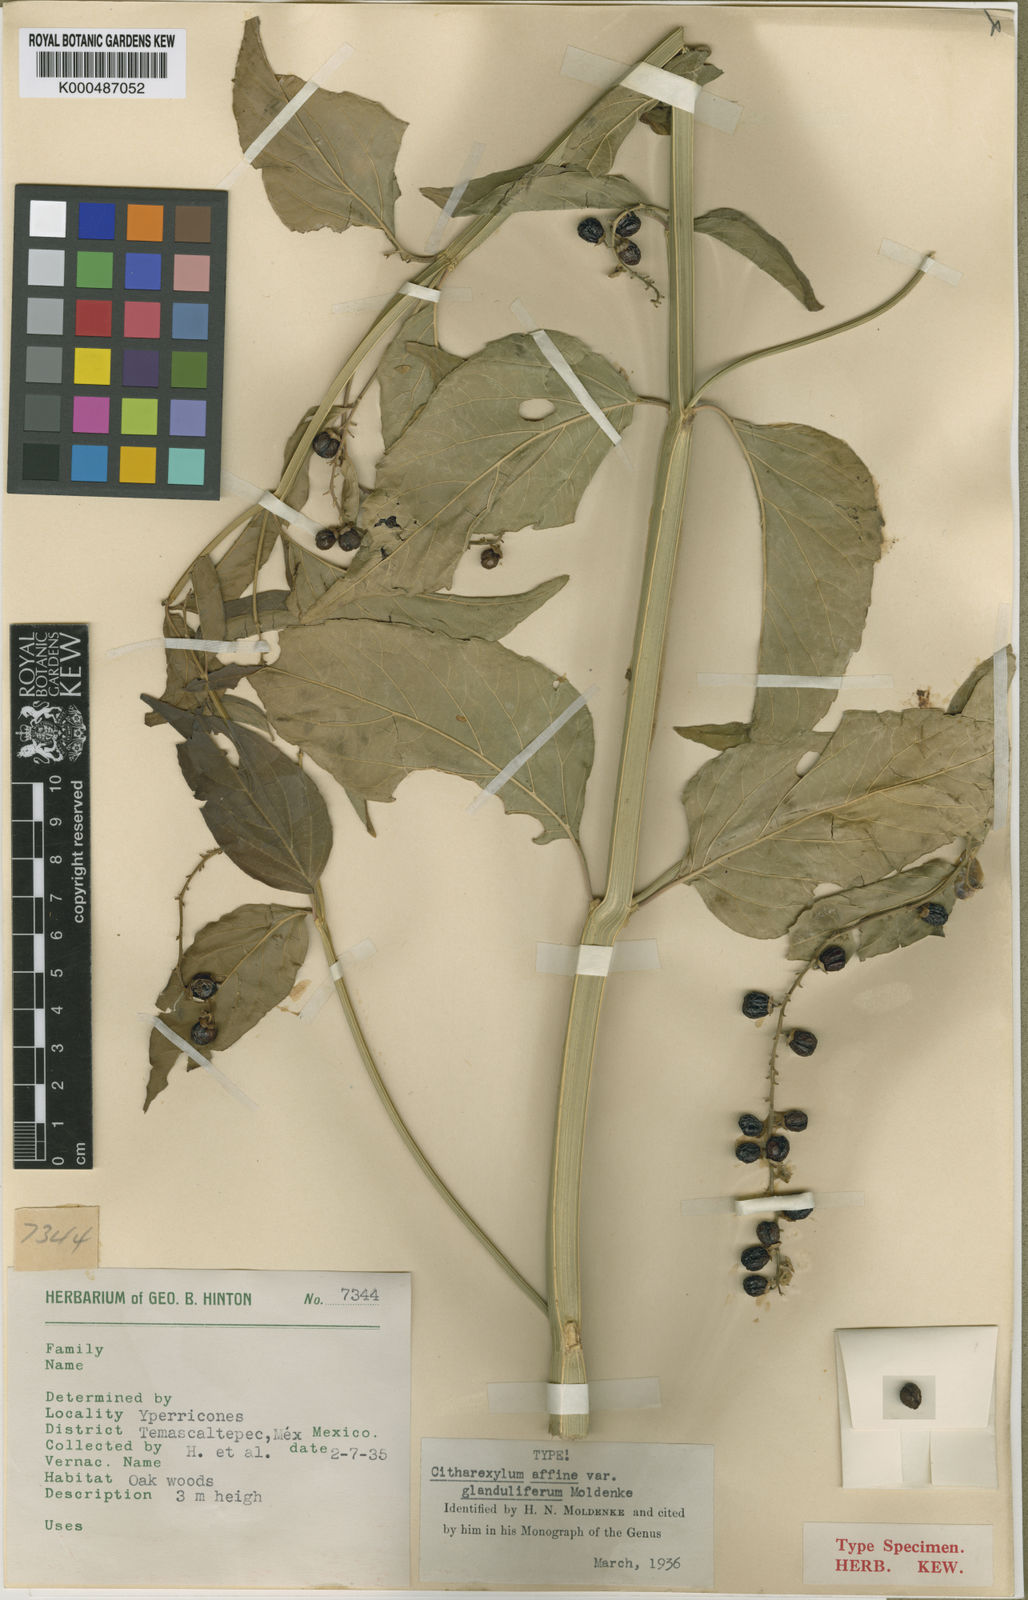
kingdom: Plantae
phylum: Tracheophyta
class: Magnoliopsida
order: Lamiales
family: Verbenaceae
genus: Citharexylum
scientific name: Citharexylum affine
